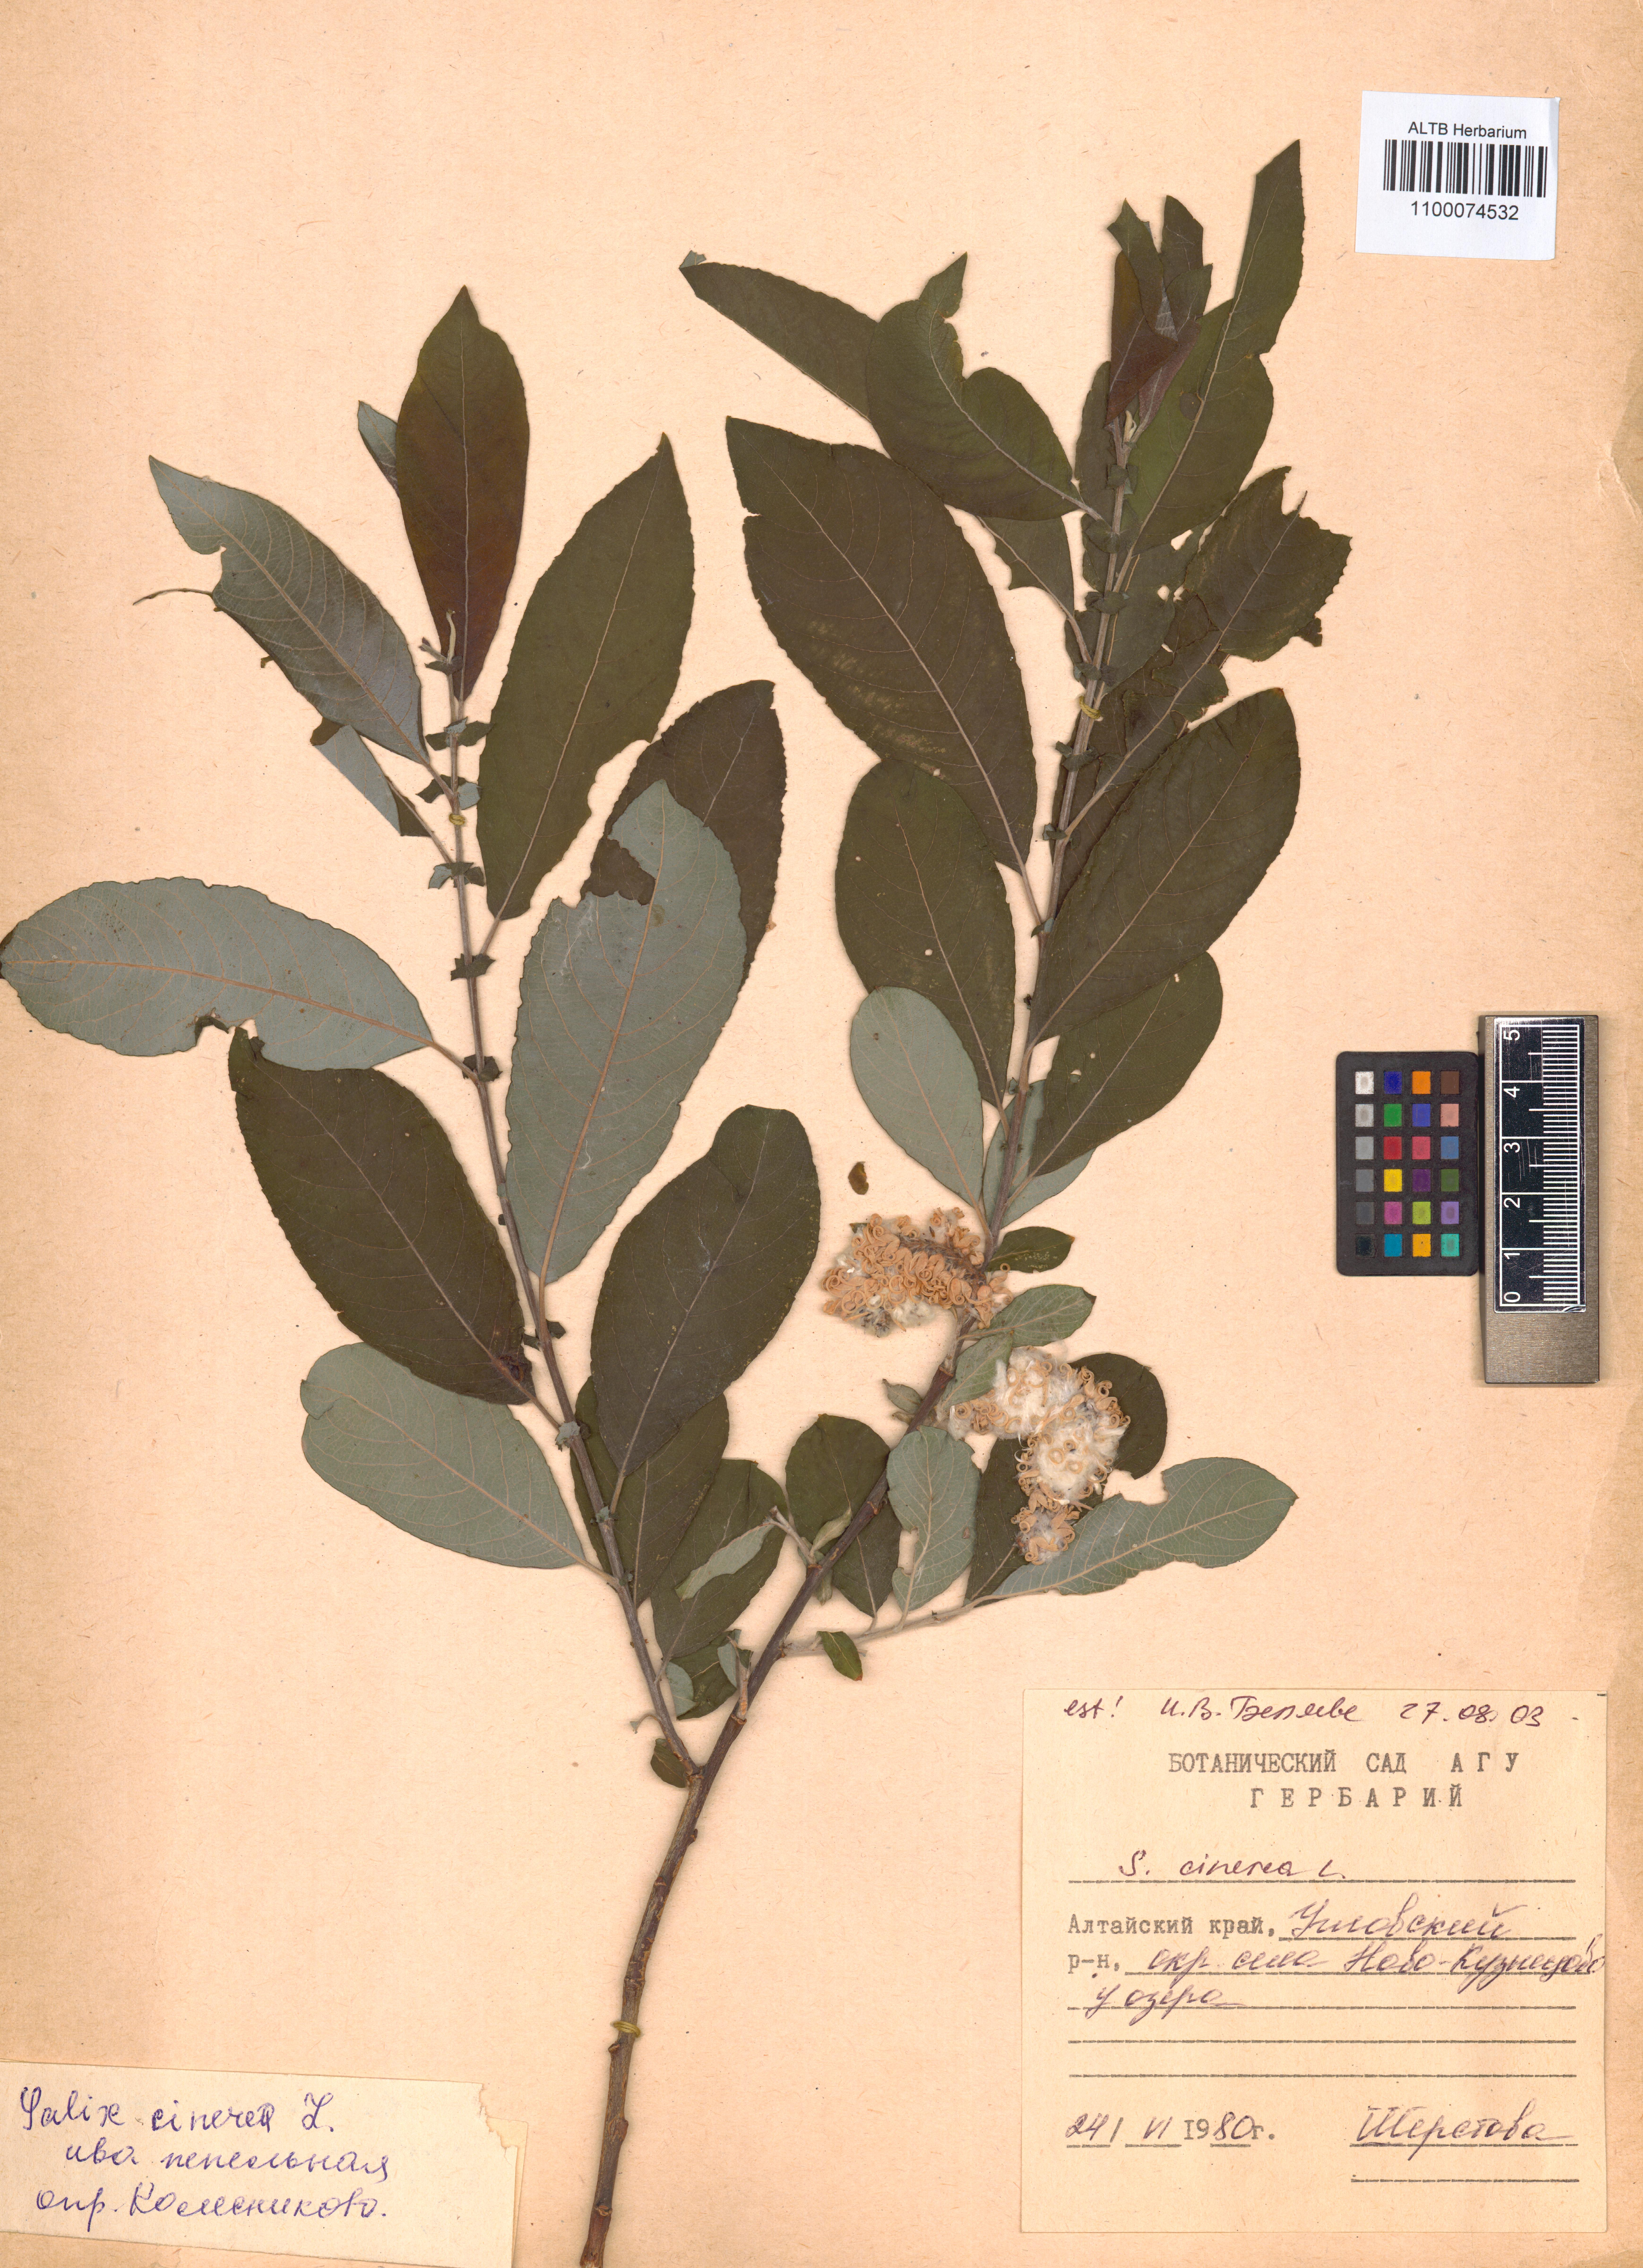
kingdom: Plantae
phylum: Tracheophyta
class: Magnoliopsida
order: Malpighiales
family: Salicaceae
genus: Salix
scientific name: Salix cinerea
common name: Common sallow
